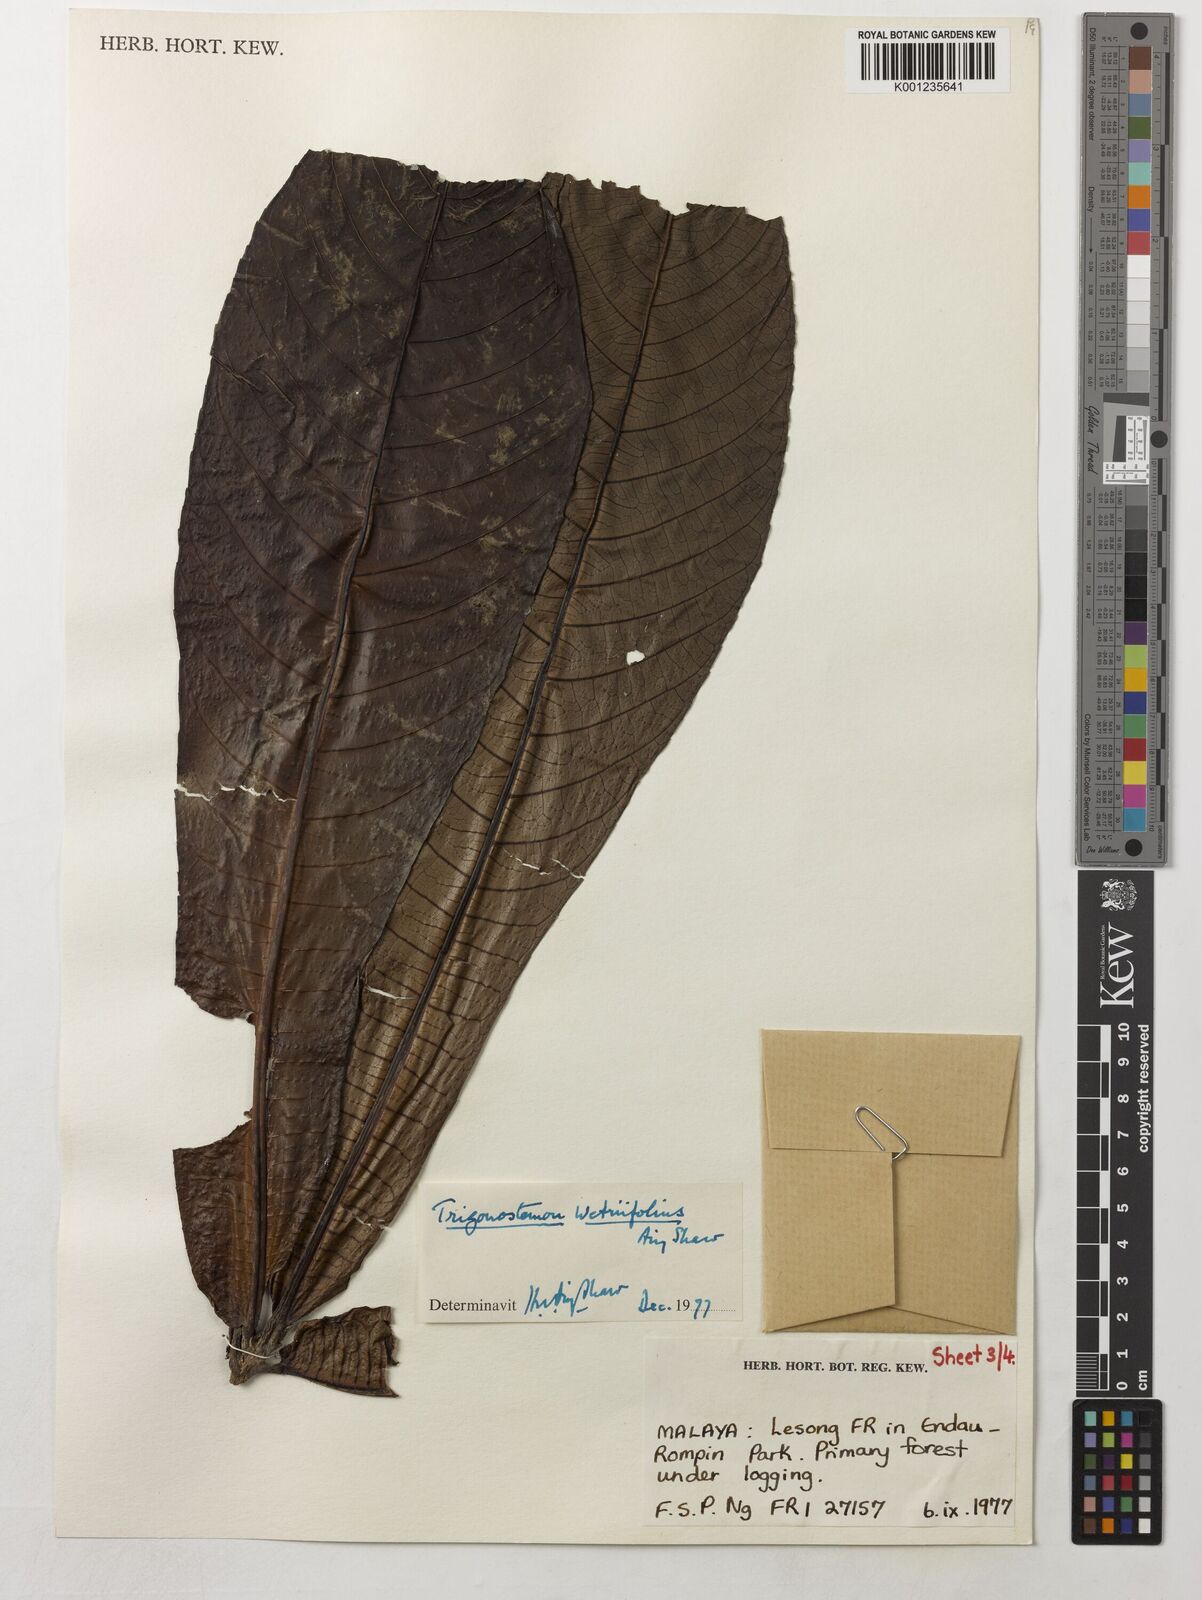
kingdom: Plantae
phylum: Tracheophyta
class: Magnoliopsida
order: Malpighiales
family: Euphorbiaceae
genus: Trigonostemon
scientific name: Trigonostemon wetriifolius
